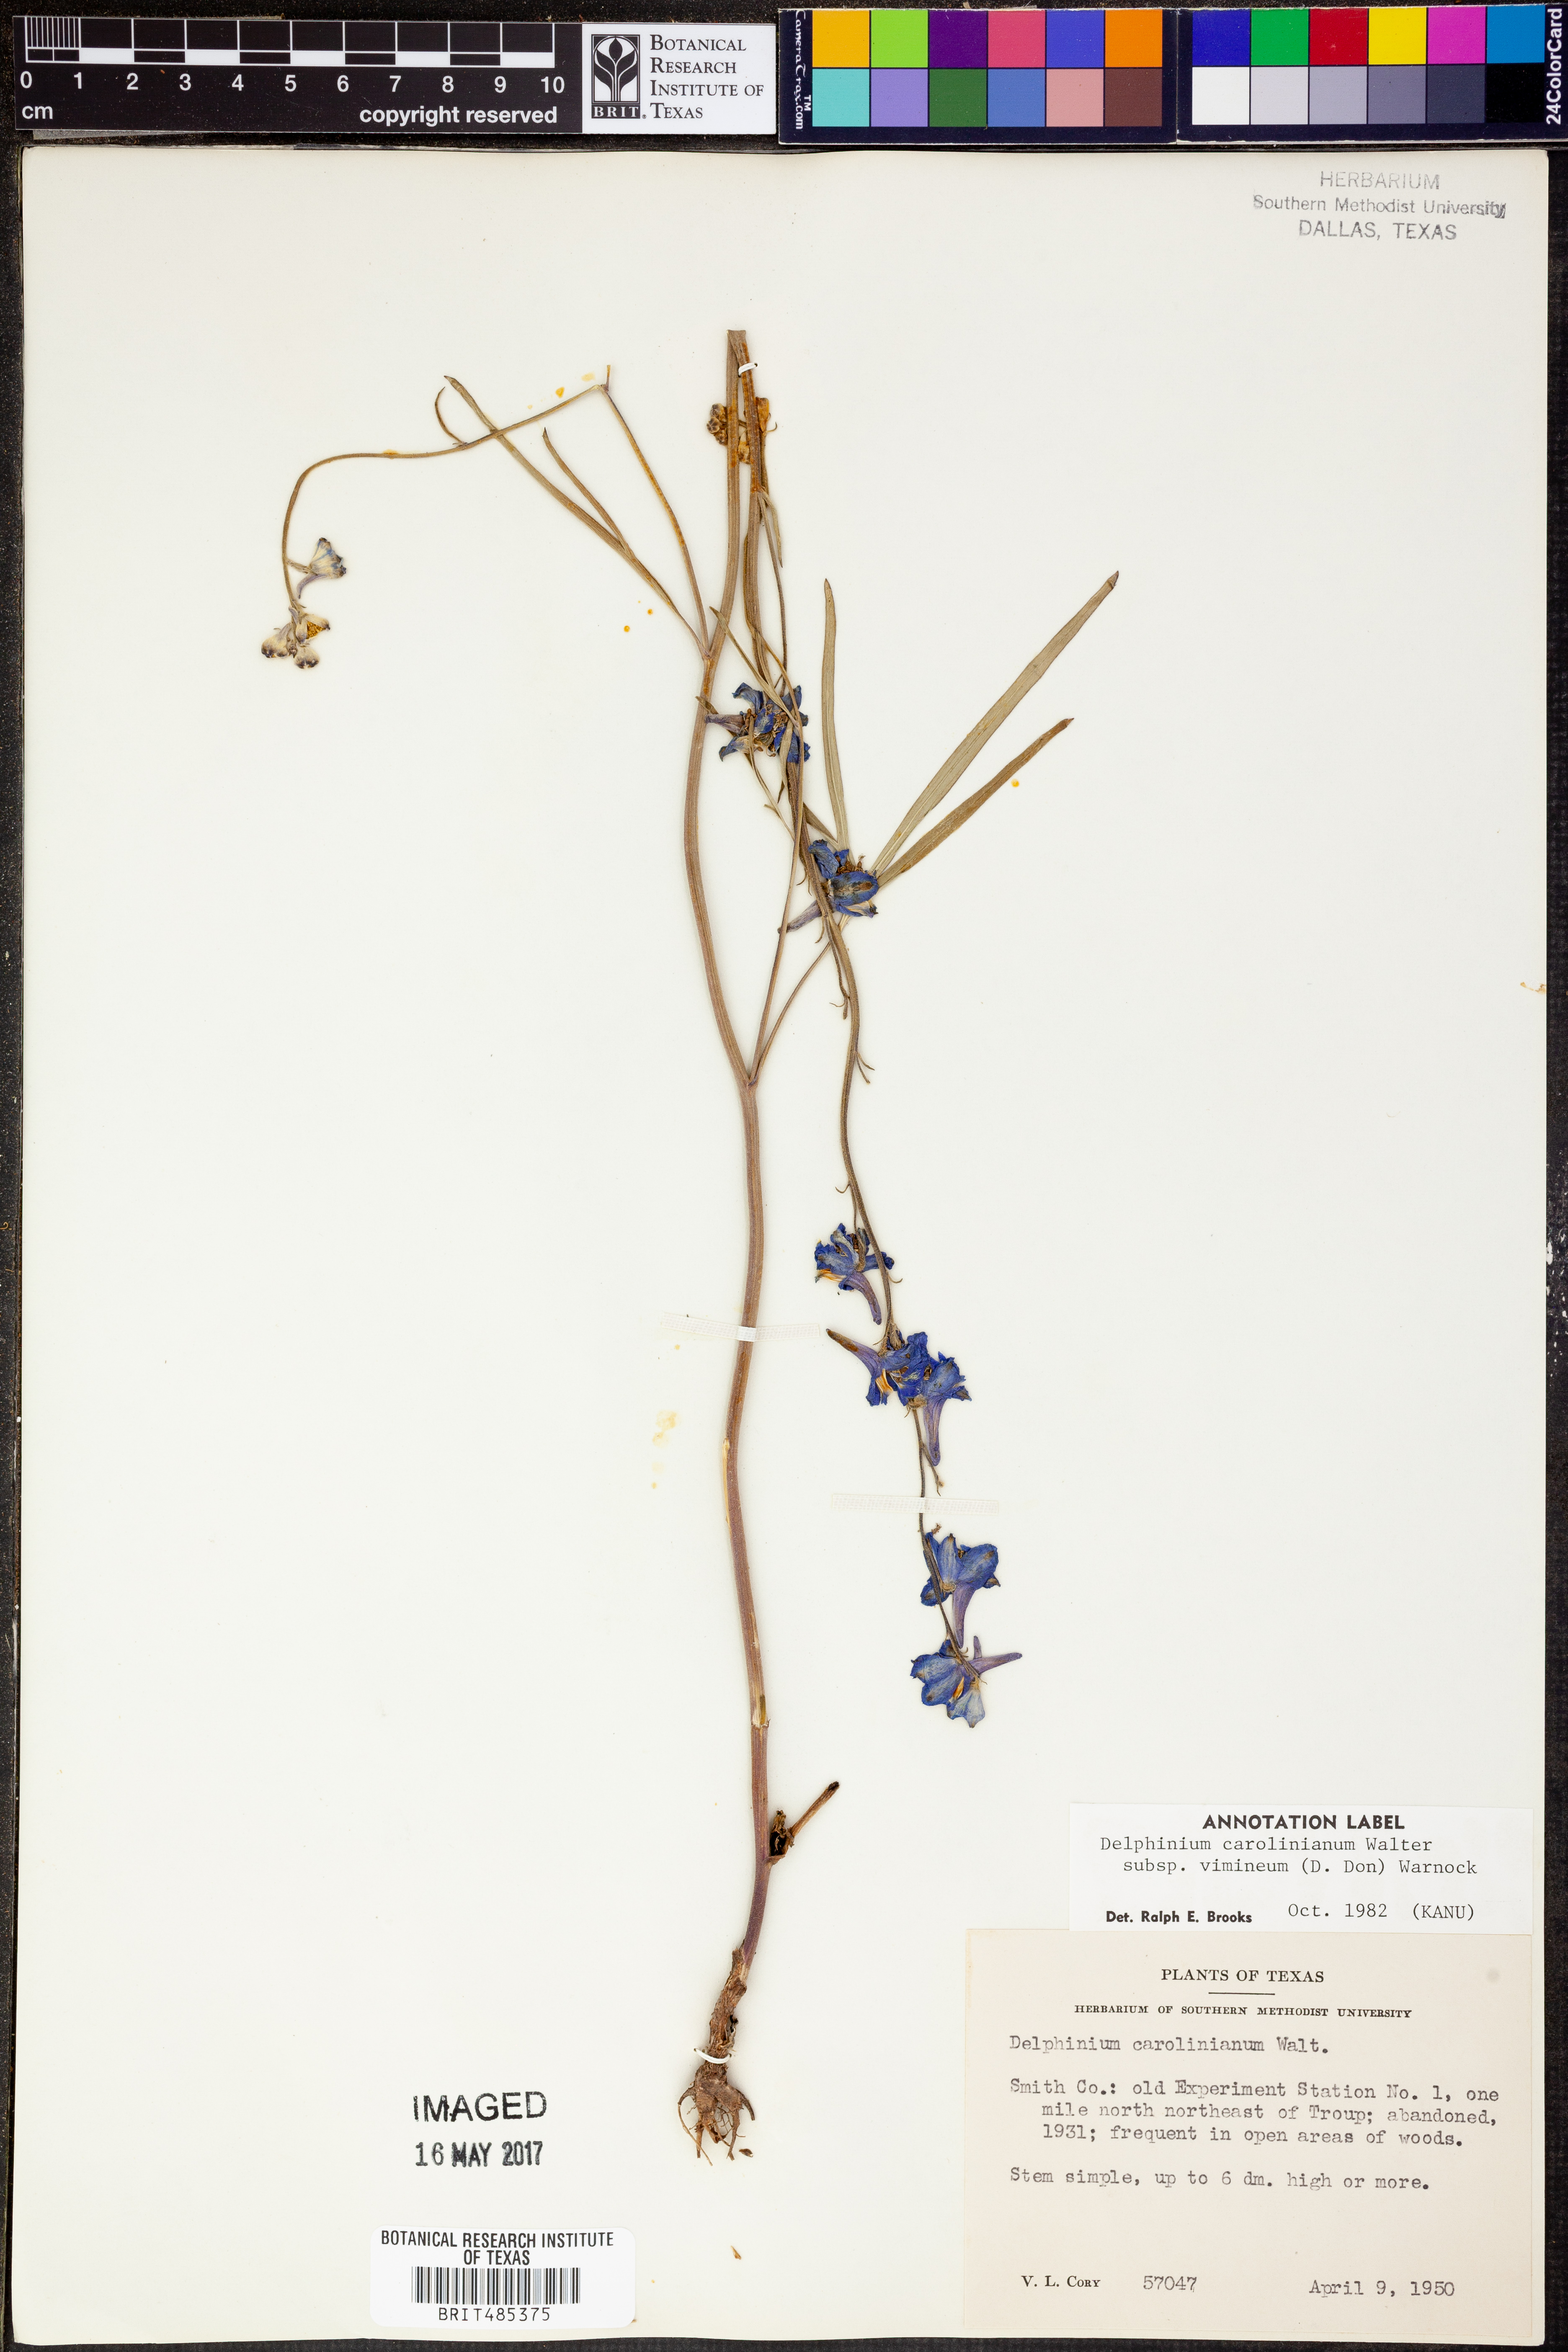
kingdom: Plantae
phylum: Tracheophyta
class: Magnoliopsida
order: Ranunculales
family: Ranunculaceae
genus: Delphinium
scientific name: Delphinium carolinianum
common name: Carolina larkspur
